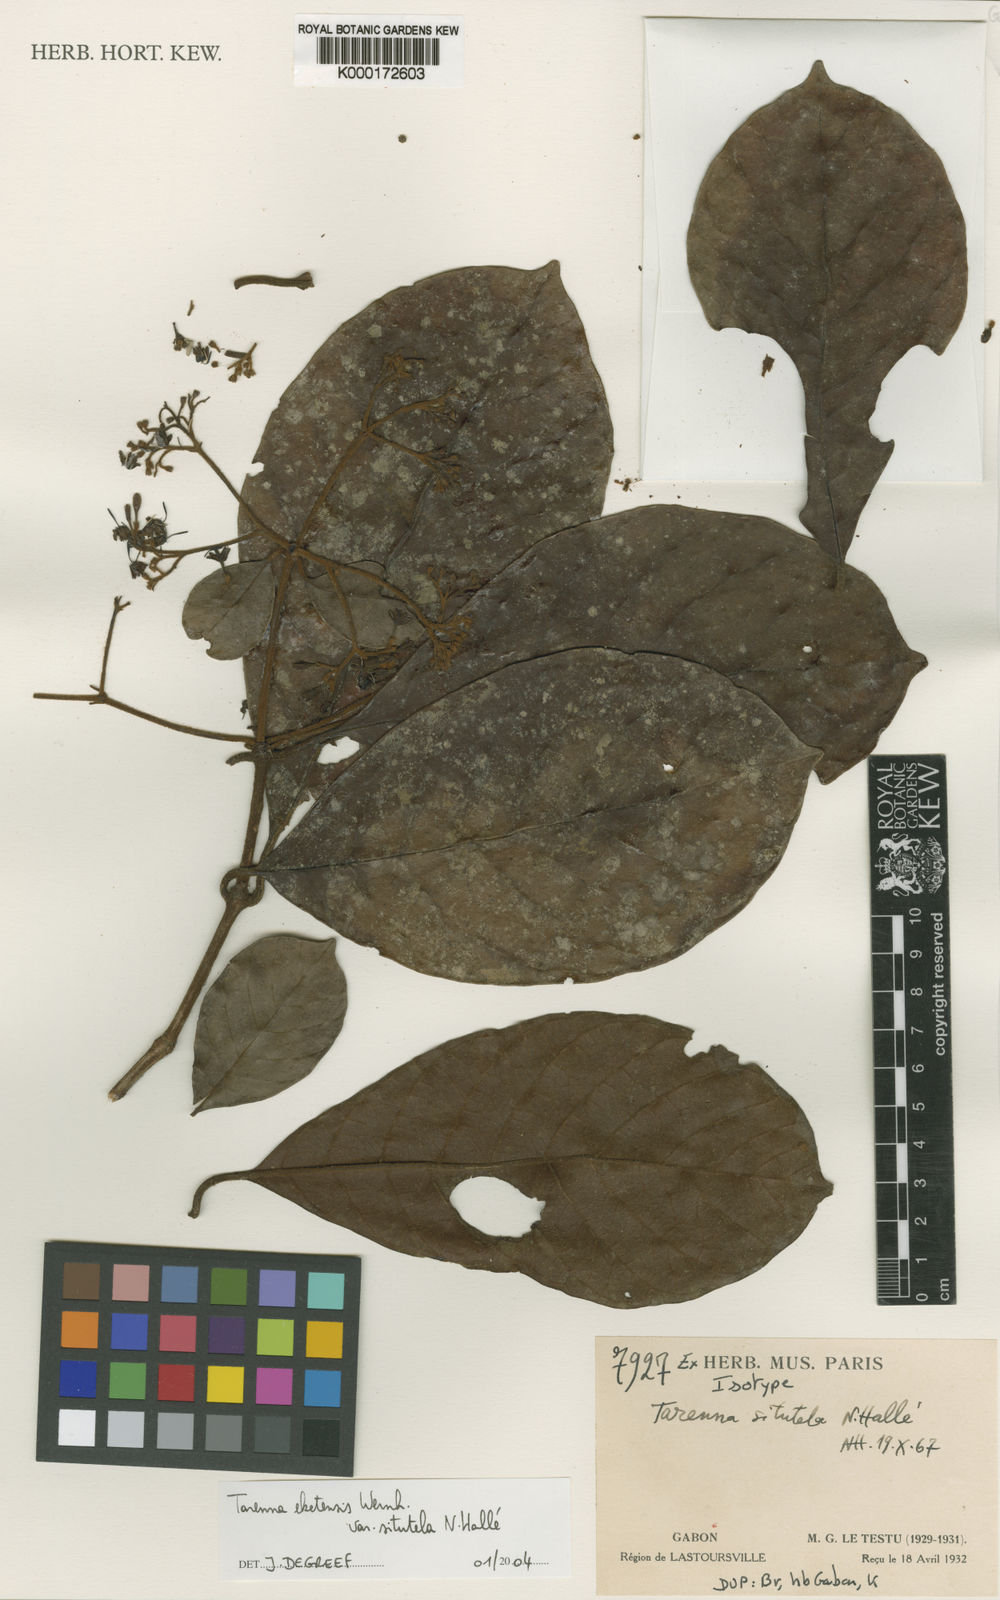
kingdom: Plantae
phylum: Tracheophyta
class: Magnoliopsida
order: Gentianales
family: Rubiaceae
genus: Tarenna
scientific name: Tarenna
